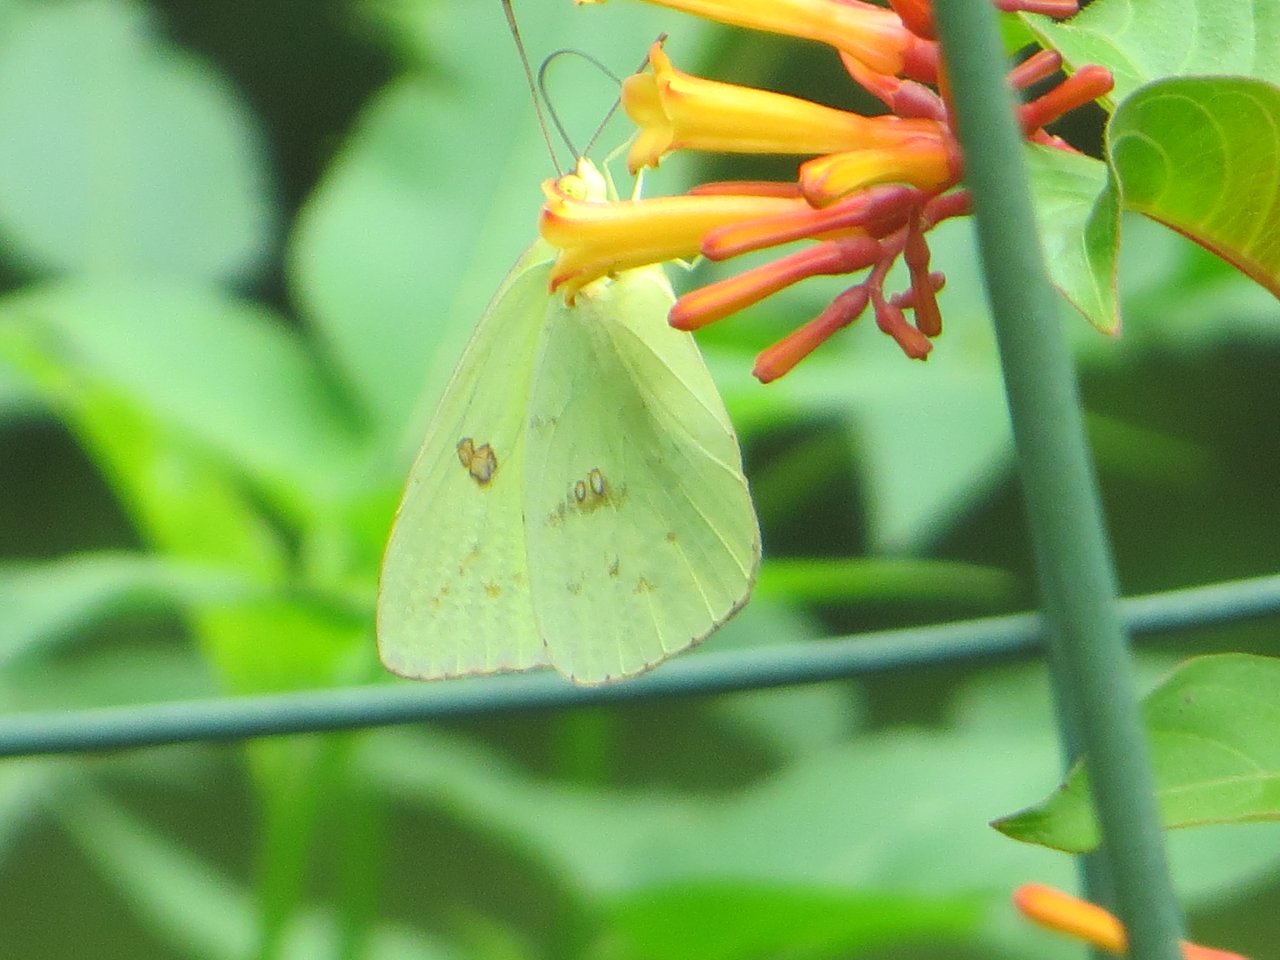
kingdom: Animalia
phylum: Arthropoda
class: Insecta
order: Lepidoptera
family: Pieridae
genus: Phoebis
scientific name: Phoebis sennae
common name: Cloudless Sulphur
